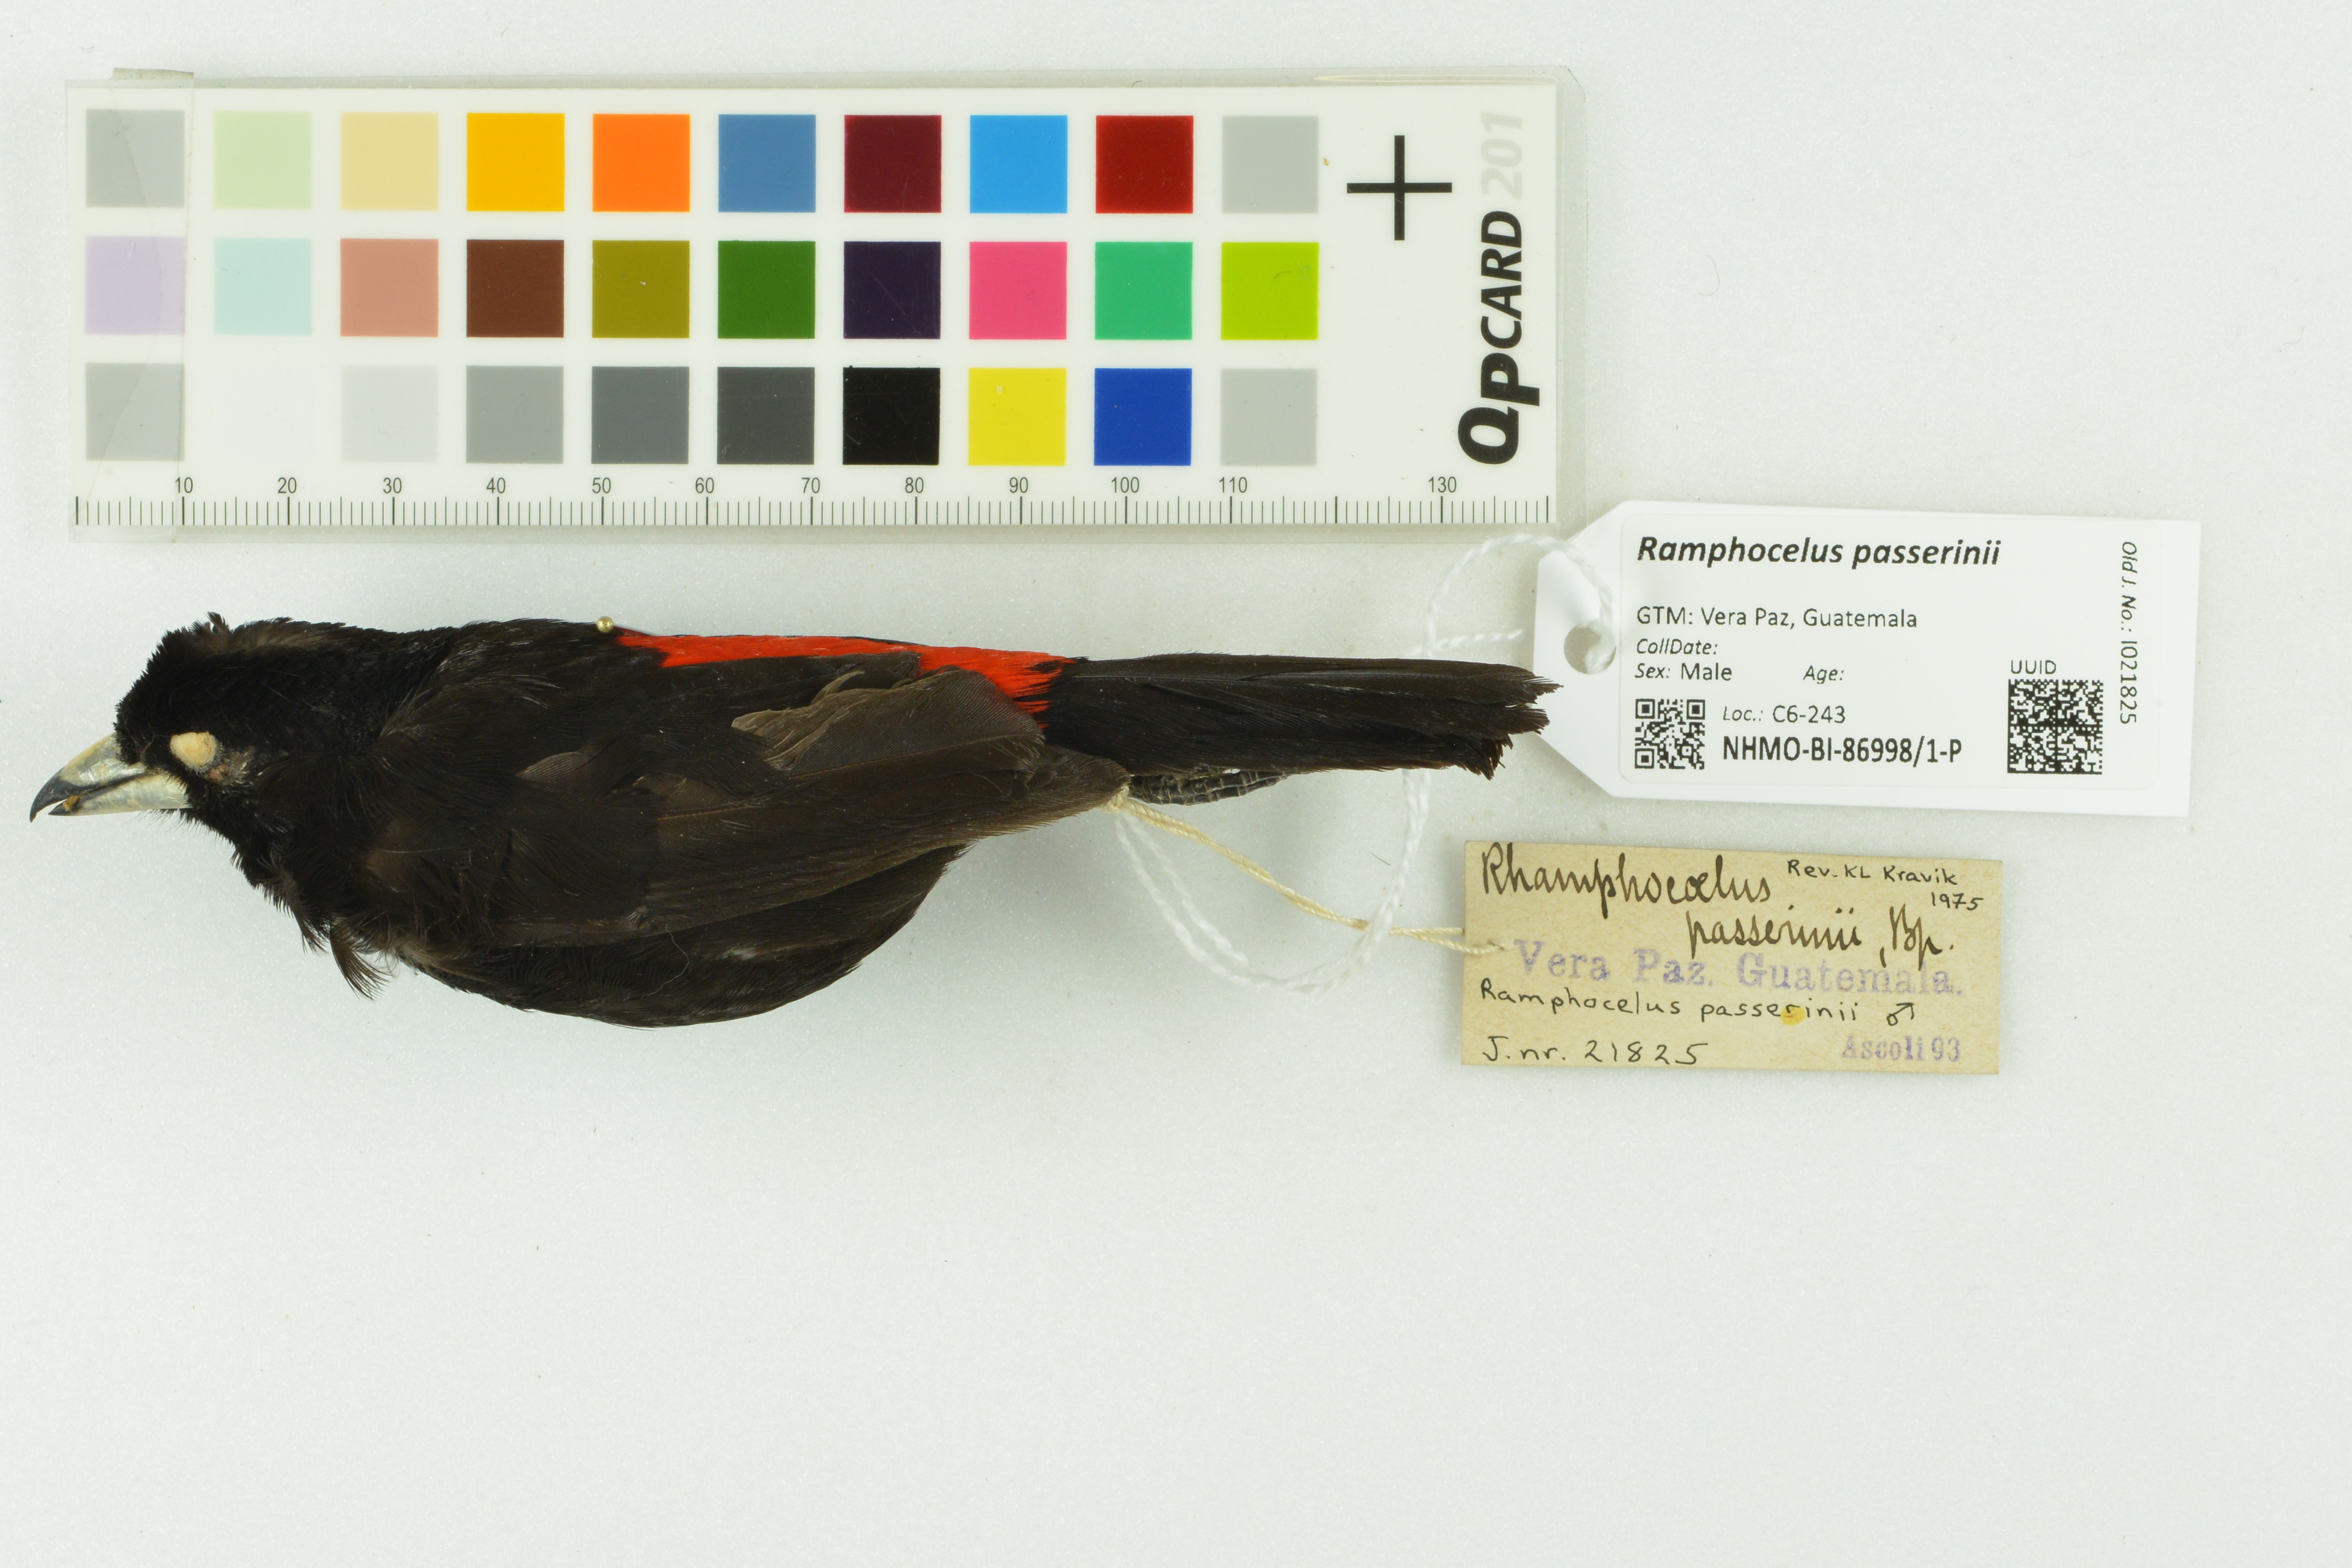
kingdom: Animalia
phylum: Chordata
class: Aves
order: Passeriformes
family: Thraupidae
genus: Ramphocelus
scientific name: Ramphocelus passerinii
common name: Passerini's tanager
